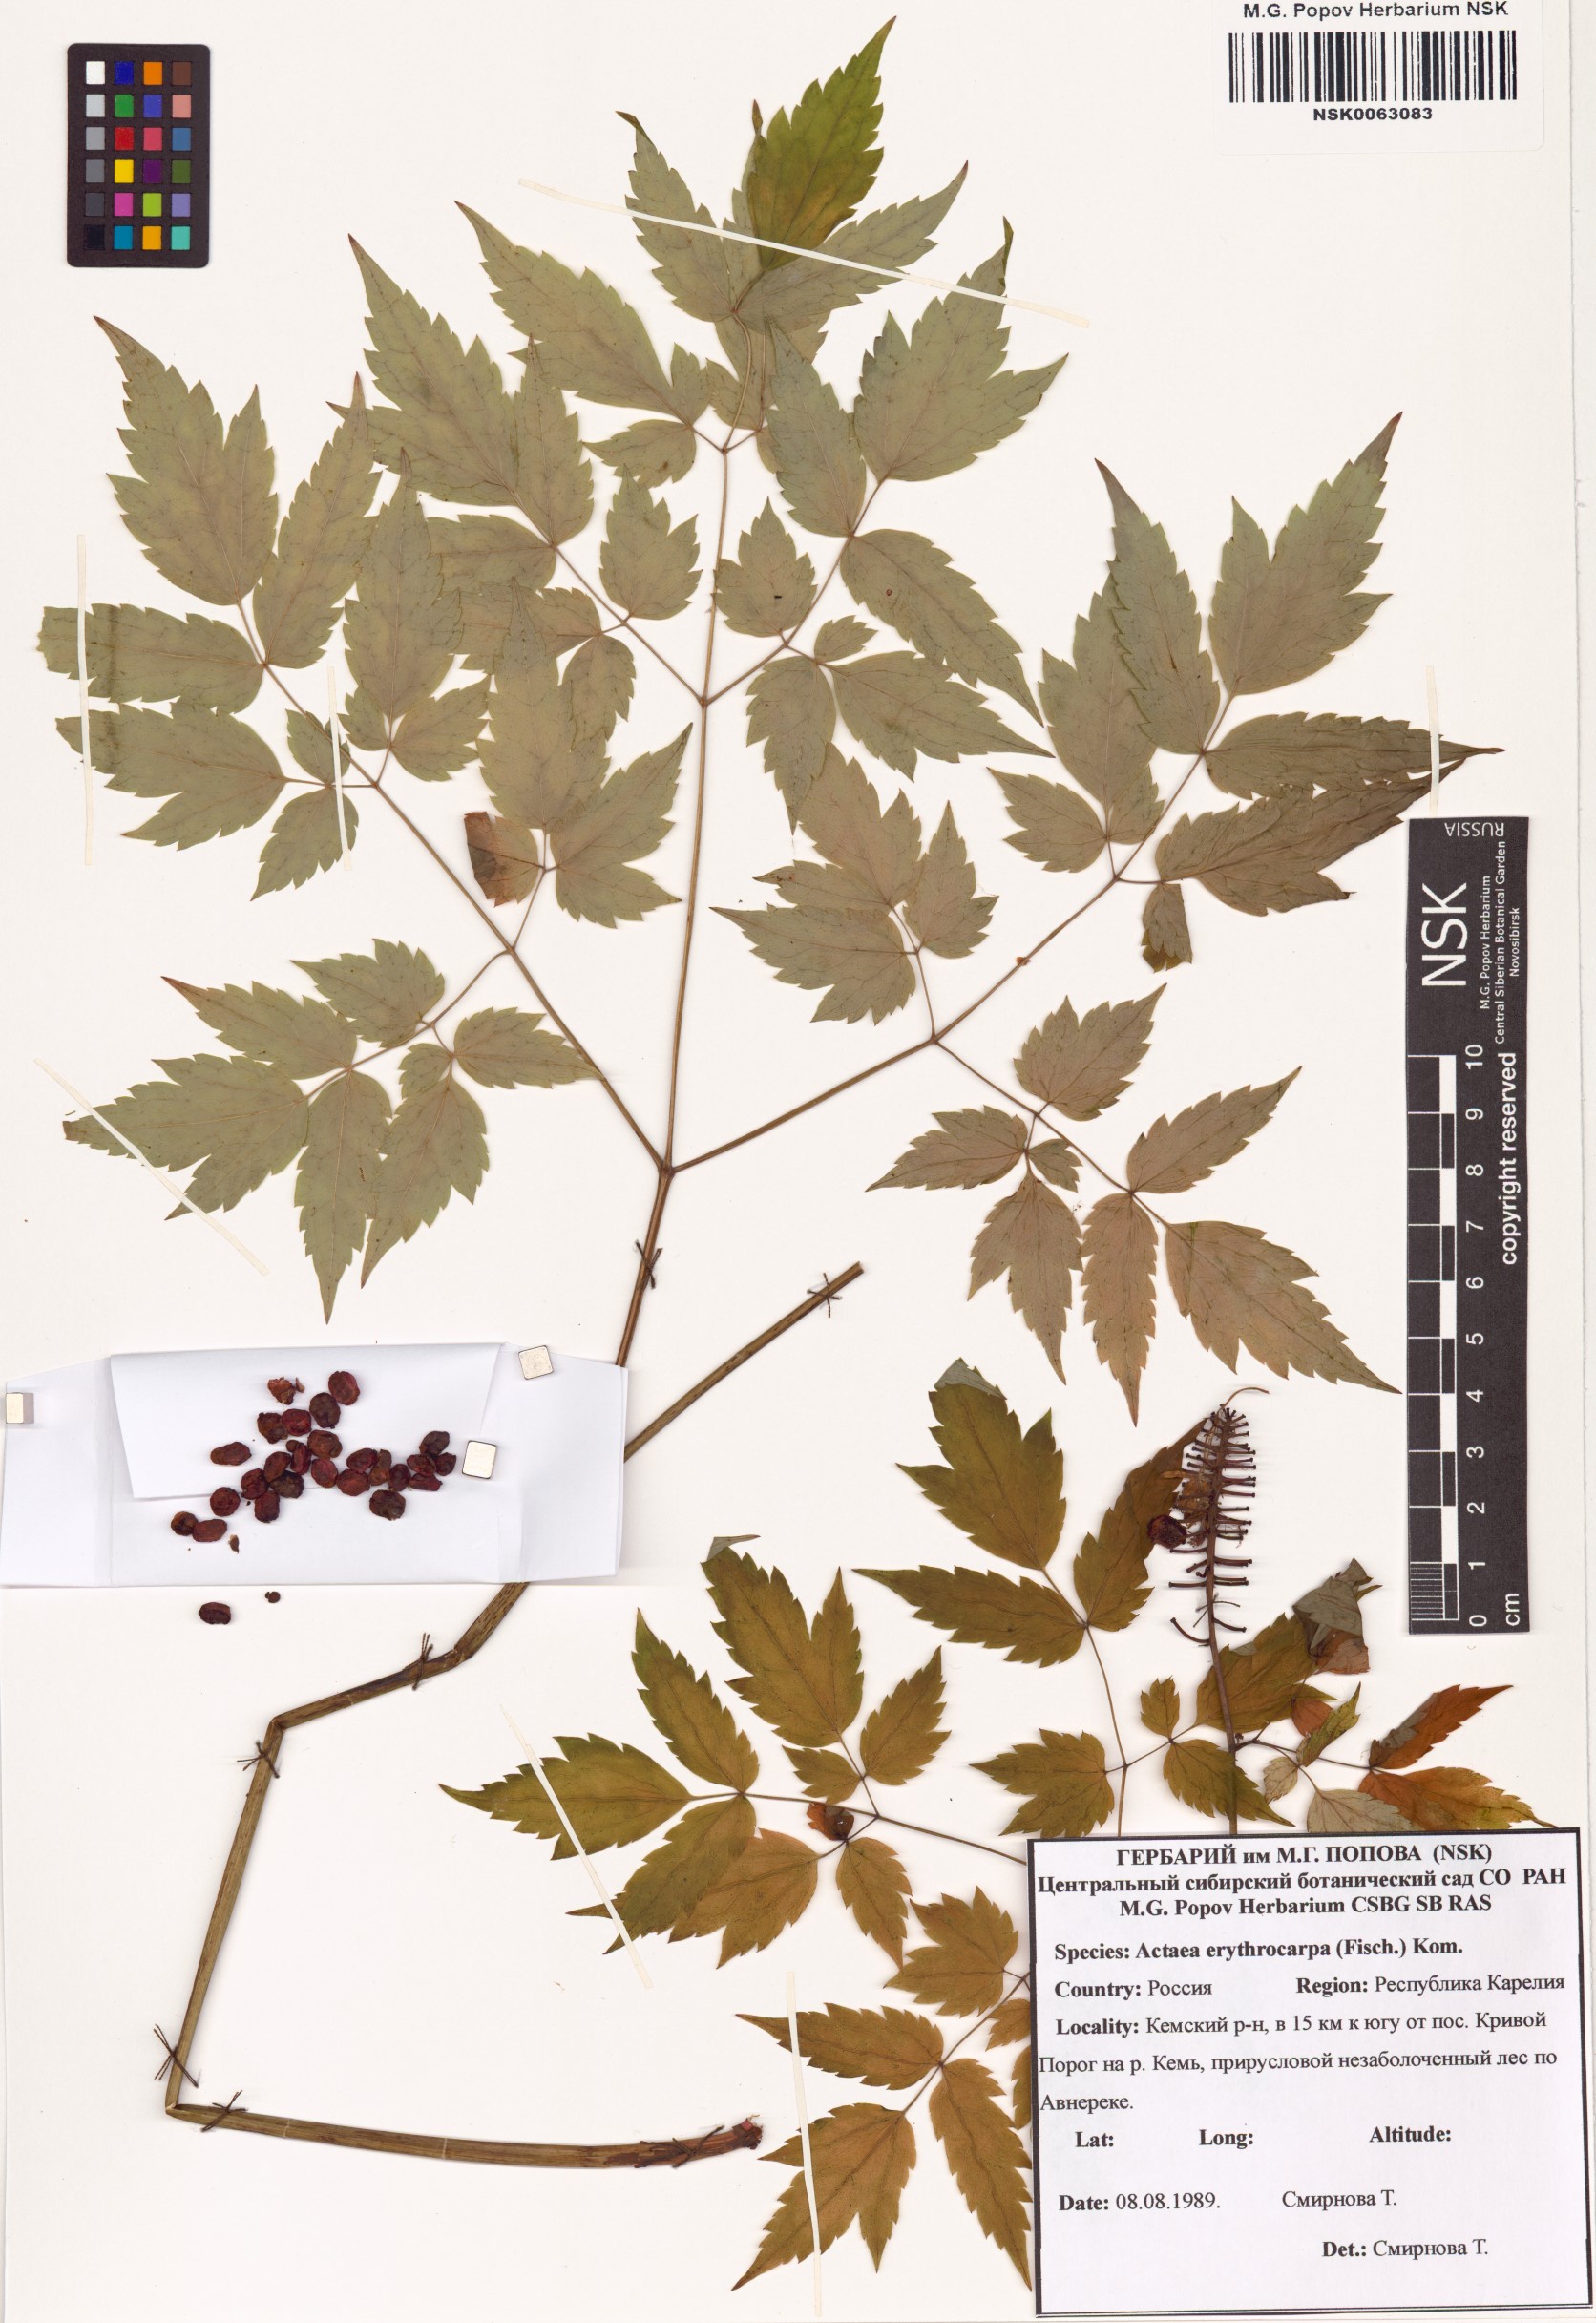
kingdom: Plantae
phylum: Tracheophyta
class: Magnoliopsida
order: Ranunculales
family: Ranunculaceae
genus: Actaea
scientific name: Actaea rubra
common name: Red baneberry
